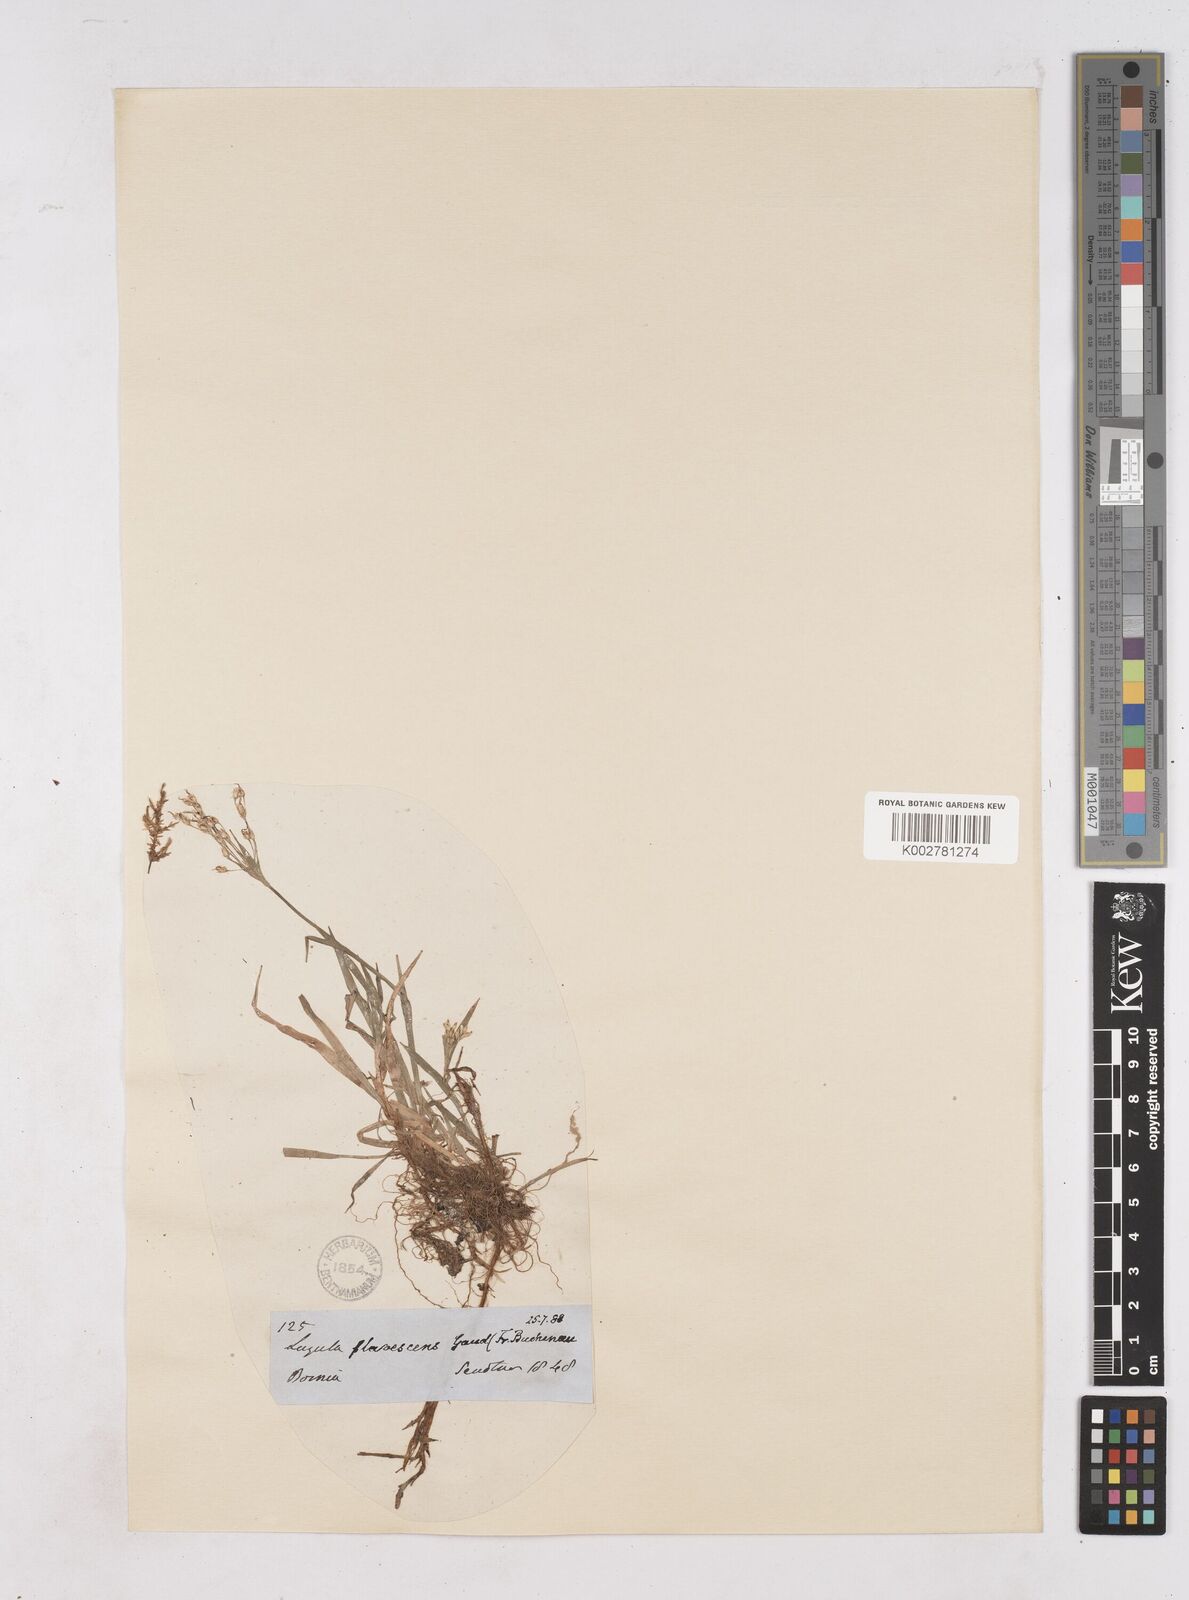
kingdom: Plantae
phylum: Tracheophyta
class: Liliopsida
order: Poales
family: Juncaceae
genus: Luzula
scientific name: Luzula luzulina
